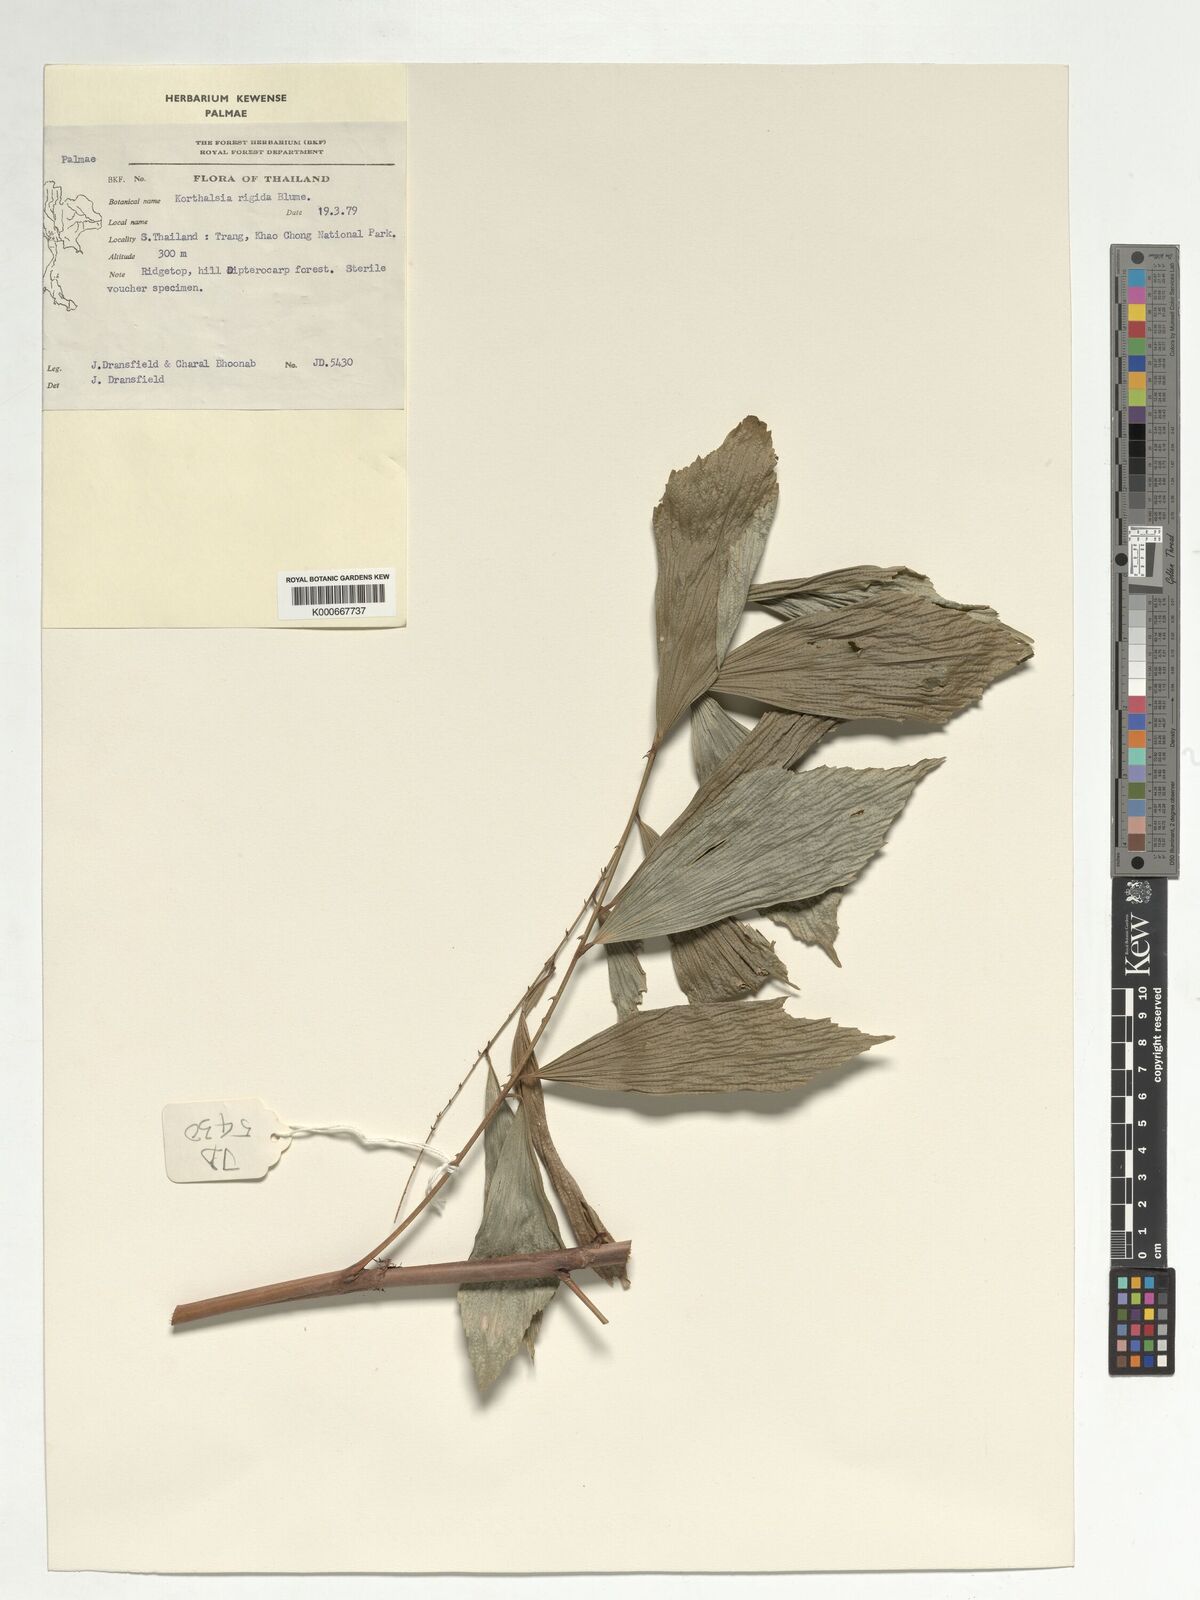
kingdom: Plantae
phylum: Tracheophyta
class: Liliopsida
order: Arecales
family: Arecaceae
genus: Korthalsia
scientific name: Korthalsia rigida
